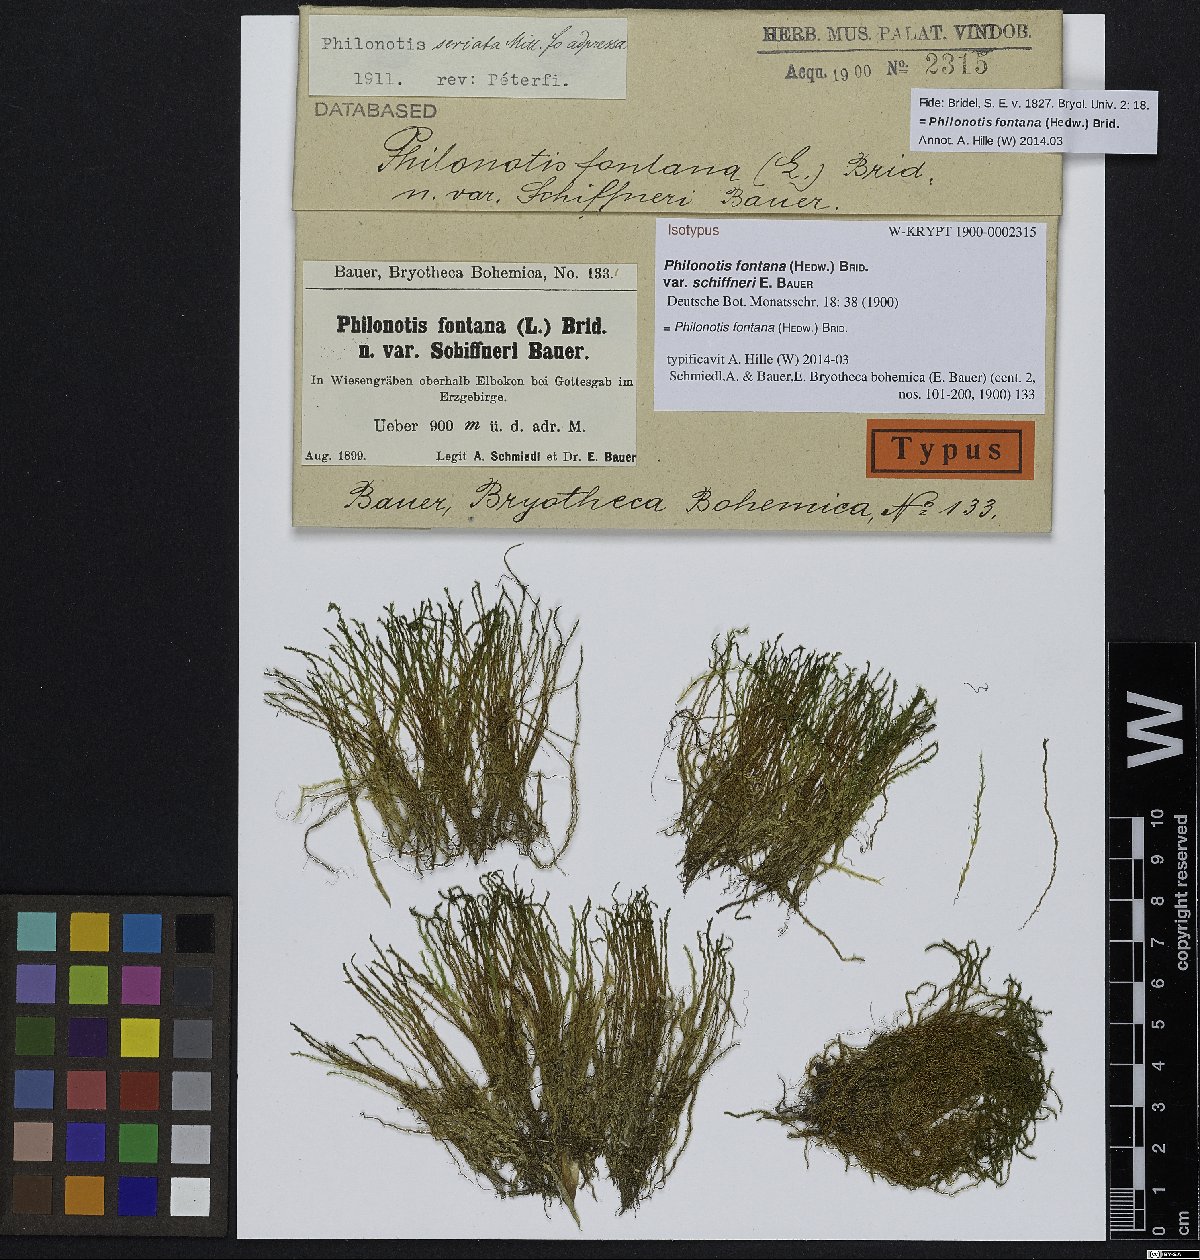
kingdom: Plantae
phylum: Bryophyta
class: Bryopsida
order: Bartramiales
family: Bartramiaceae
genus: Philonotis
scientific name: Philonotis seriata
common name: Spiral apple-moss
